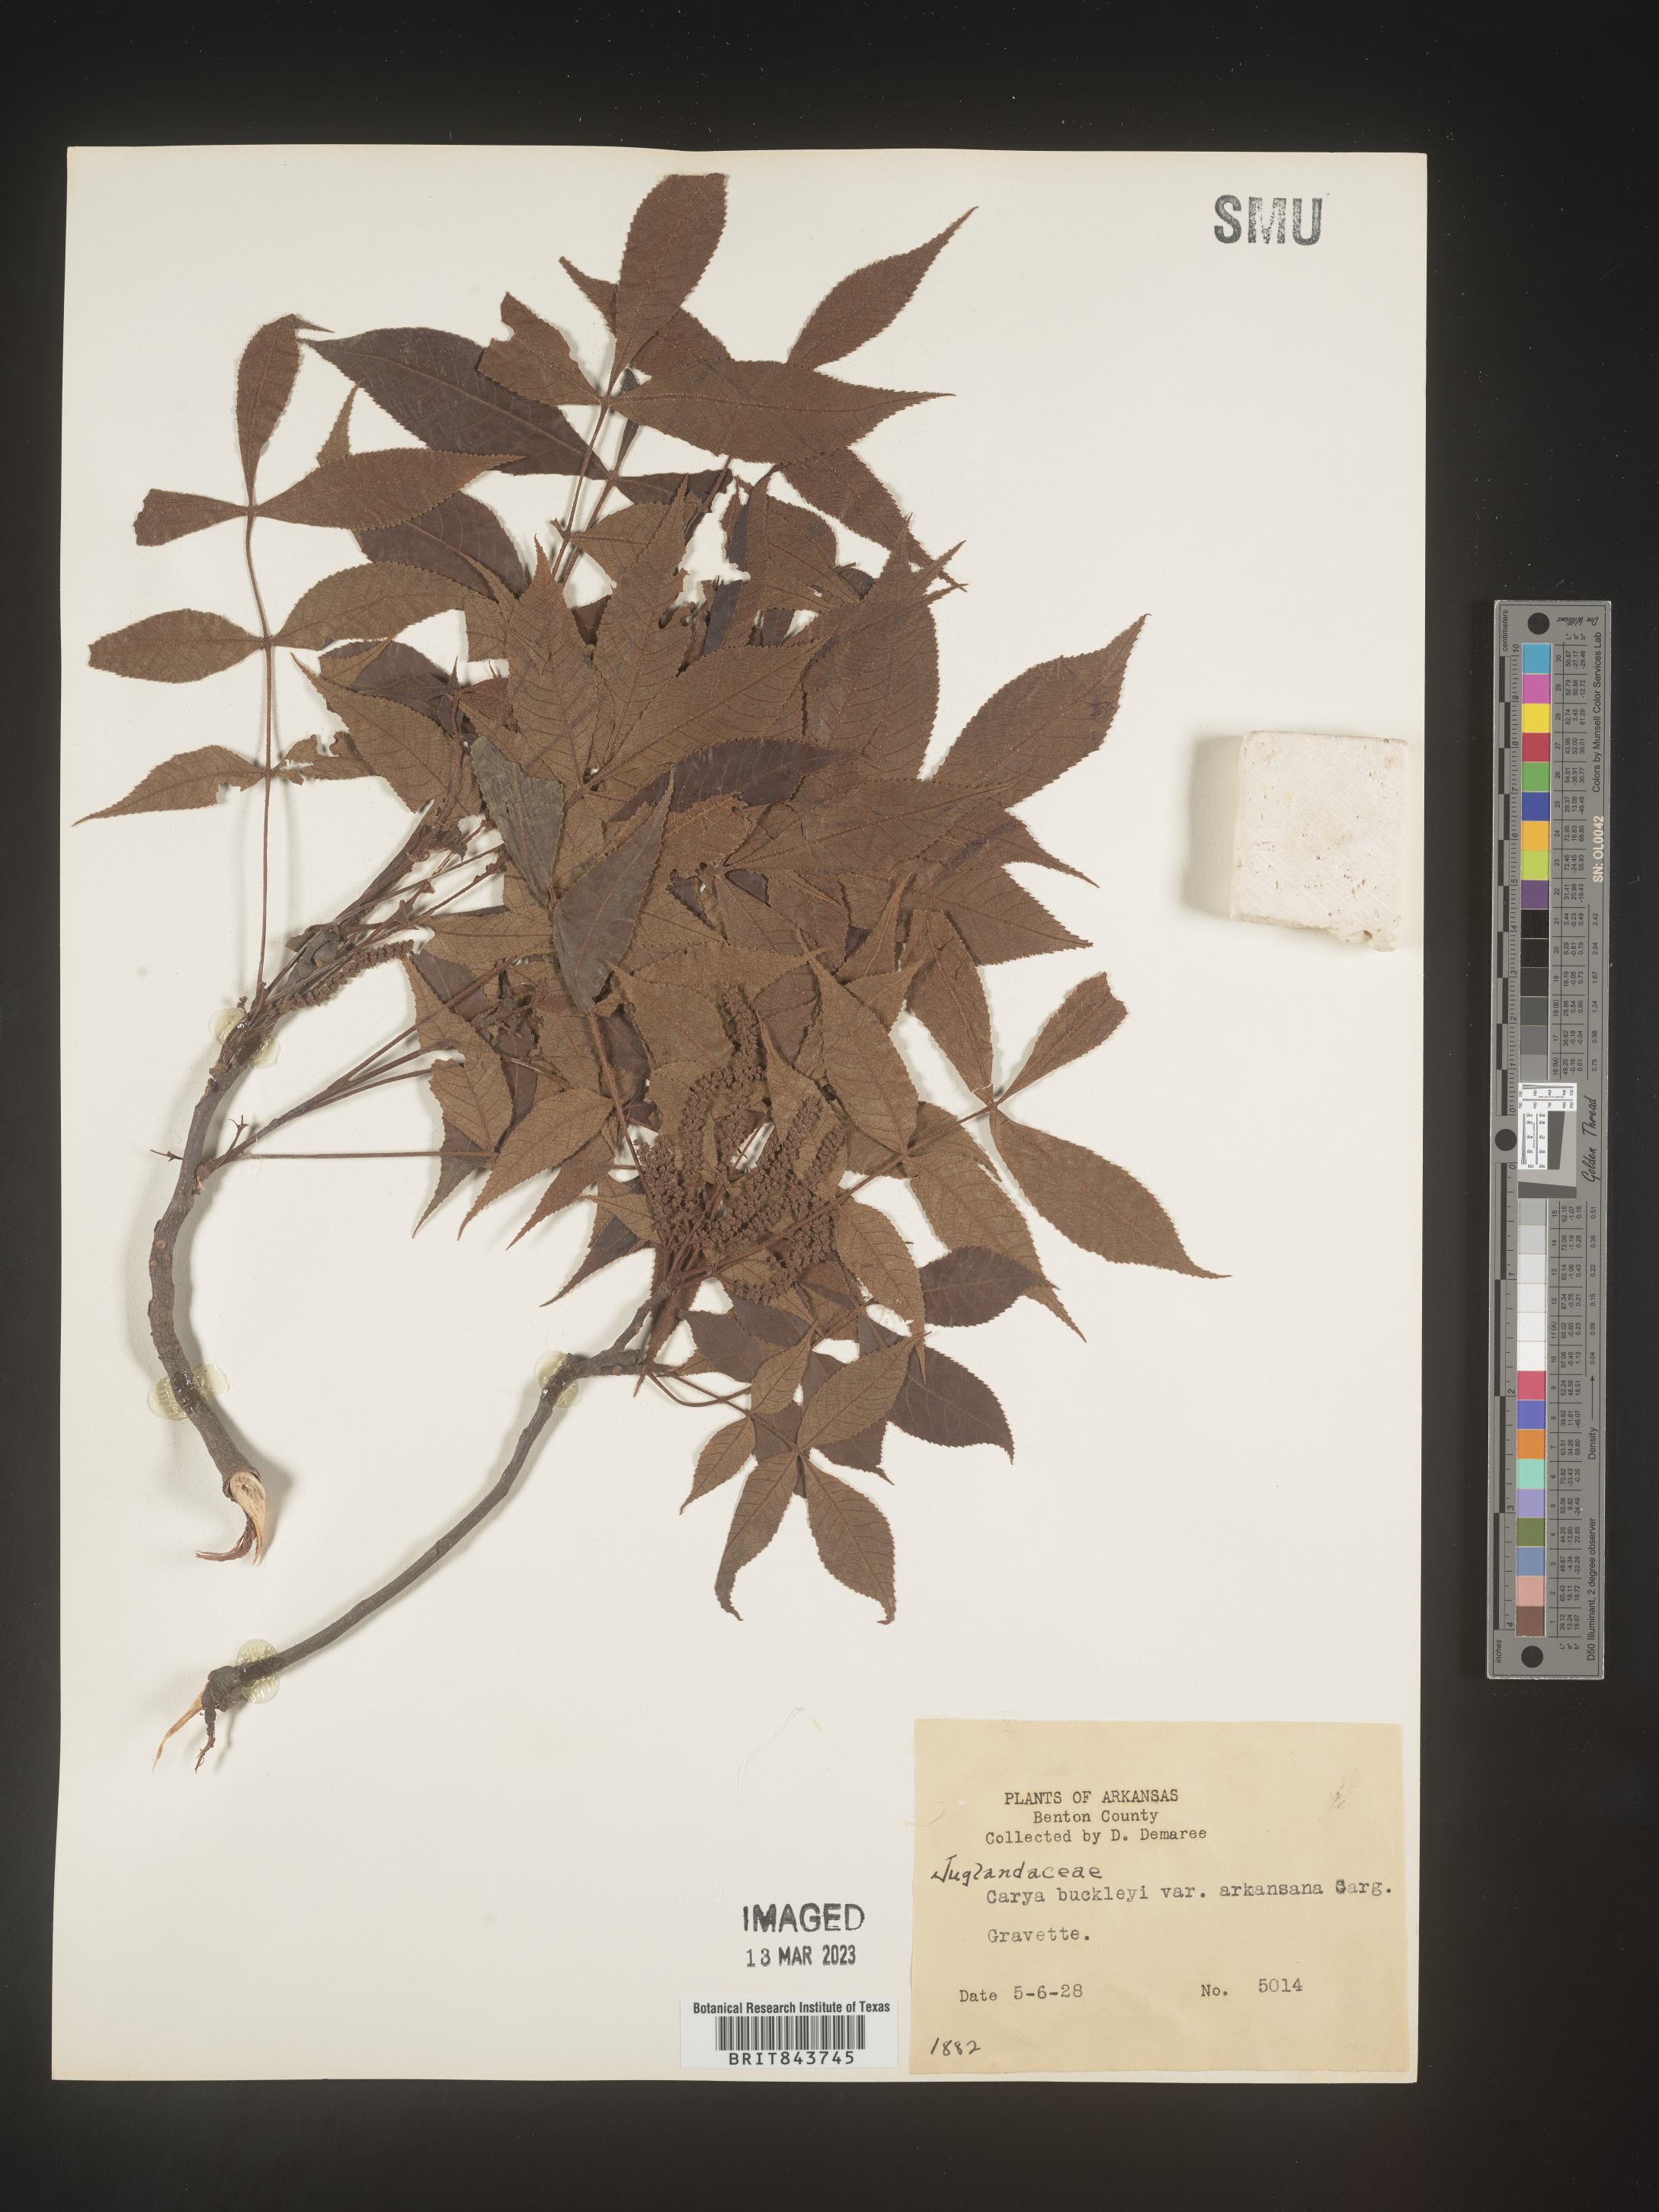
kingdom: Plantae
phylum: Tracheophyta
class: Magnoliopsida
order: Fagales
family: Juglandaceae
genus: Carya
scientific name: Carya texana
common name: Black hickory
